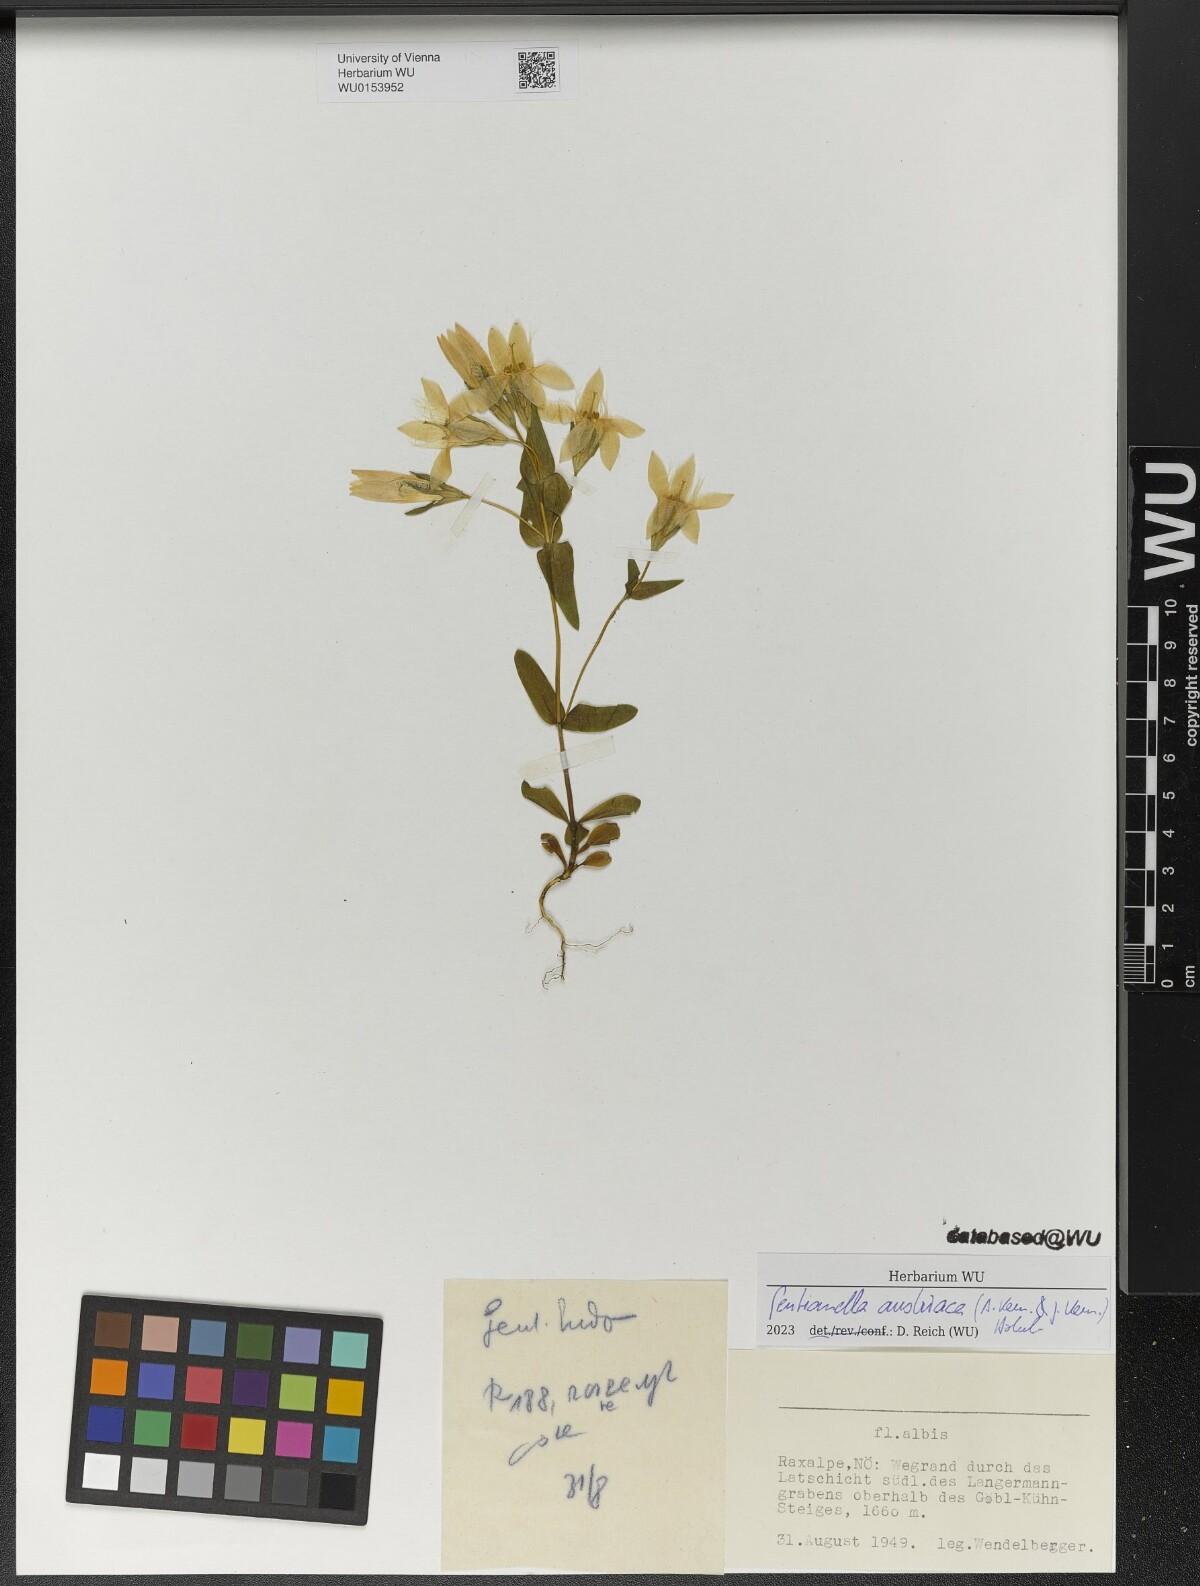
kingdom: Plantae
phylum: Tracheophyta
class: Magnoliopsida
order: Gentianales
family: Gentianaceae
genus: Gentianella
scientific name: Gentianella austriaca
